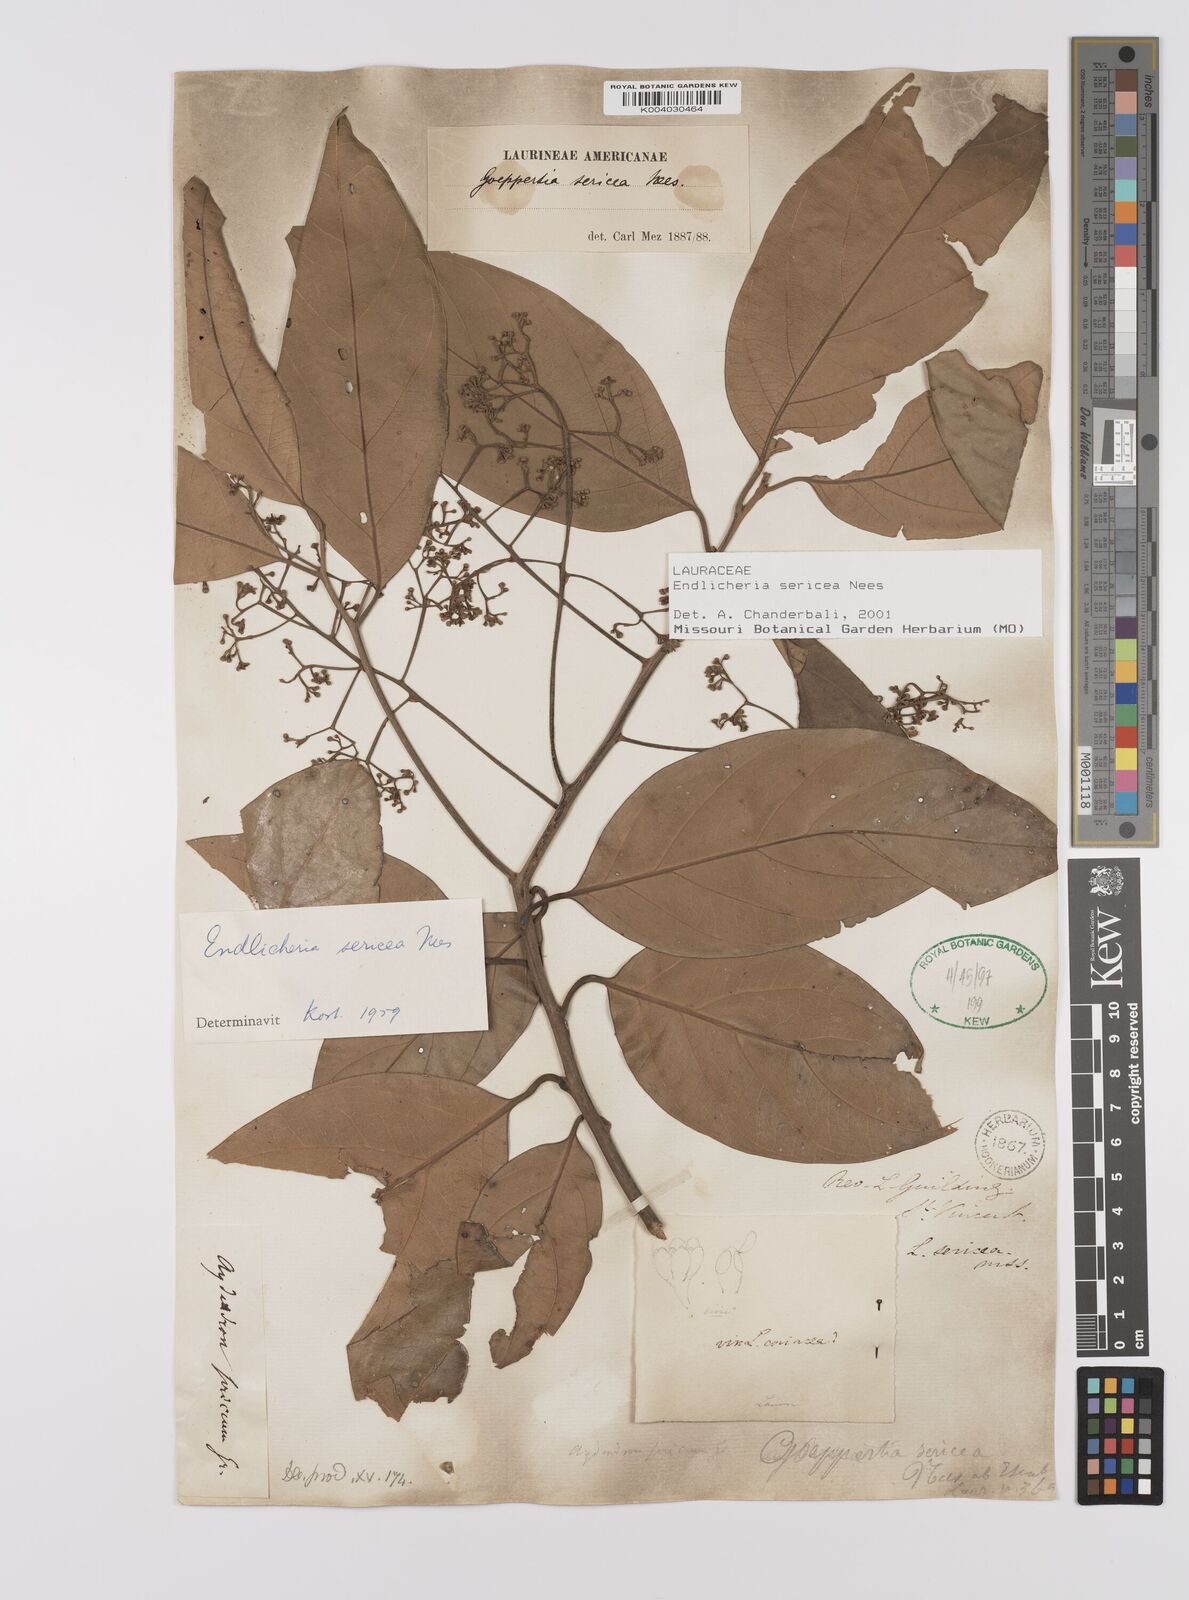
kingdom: Plantae
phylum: Tracheophyta
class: Magnoliopsida
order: Laurales
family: Lauraceae
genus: Endlicheria
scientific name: Endlicheria sericea
